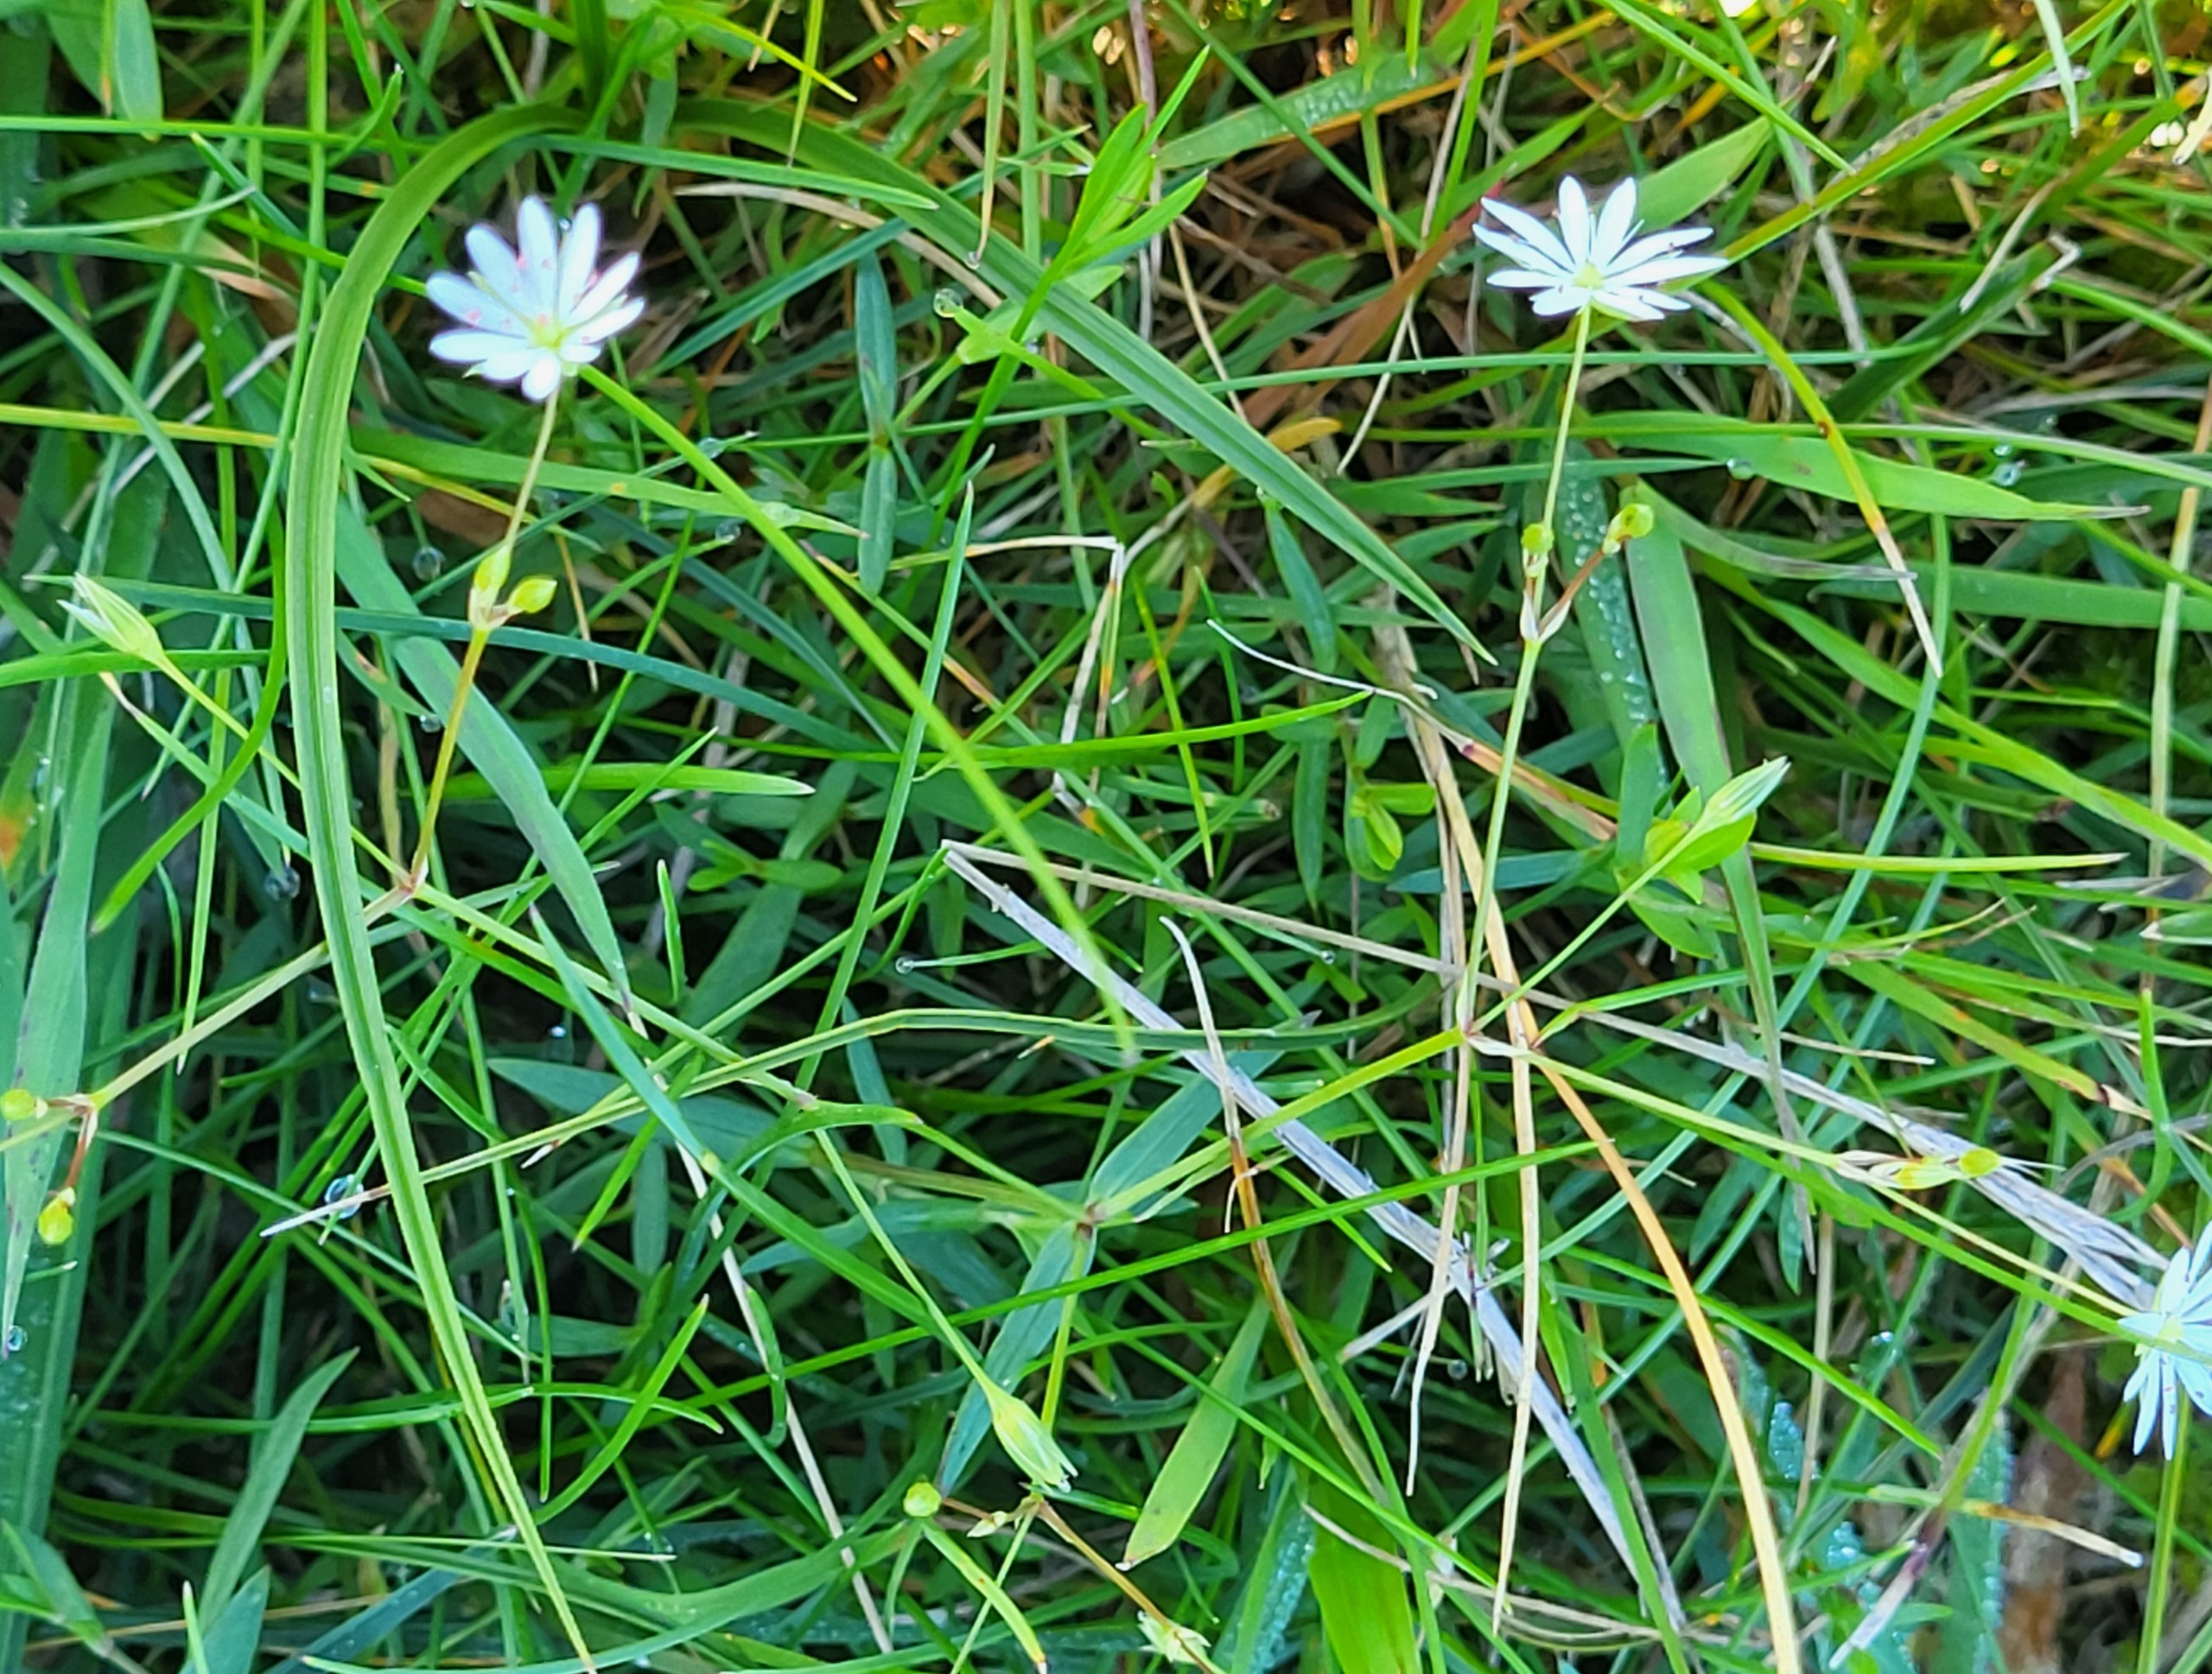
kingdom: Plantae
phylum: Tracheophyta
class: Magnoliopsida
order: Caryophyllales
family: Caryophyllaceae
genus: Stellaria
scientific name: Stellaria graminea
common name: Græsbladet fladstjerne
